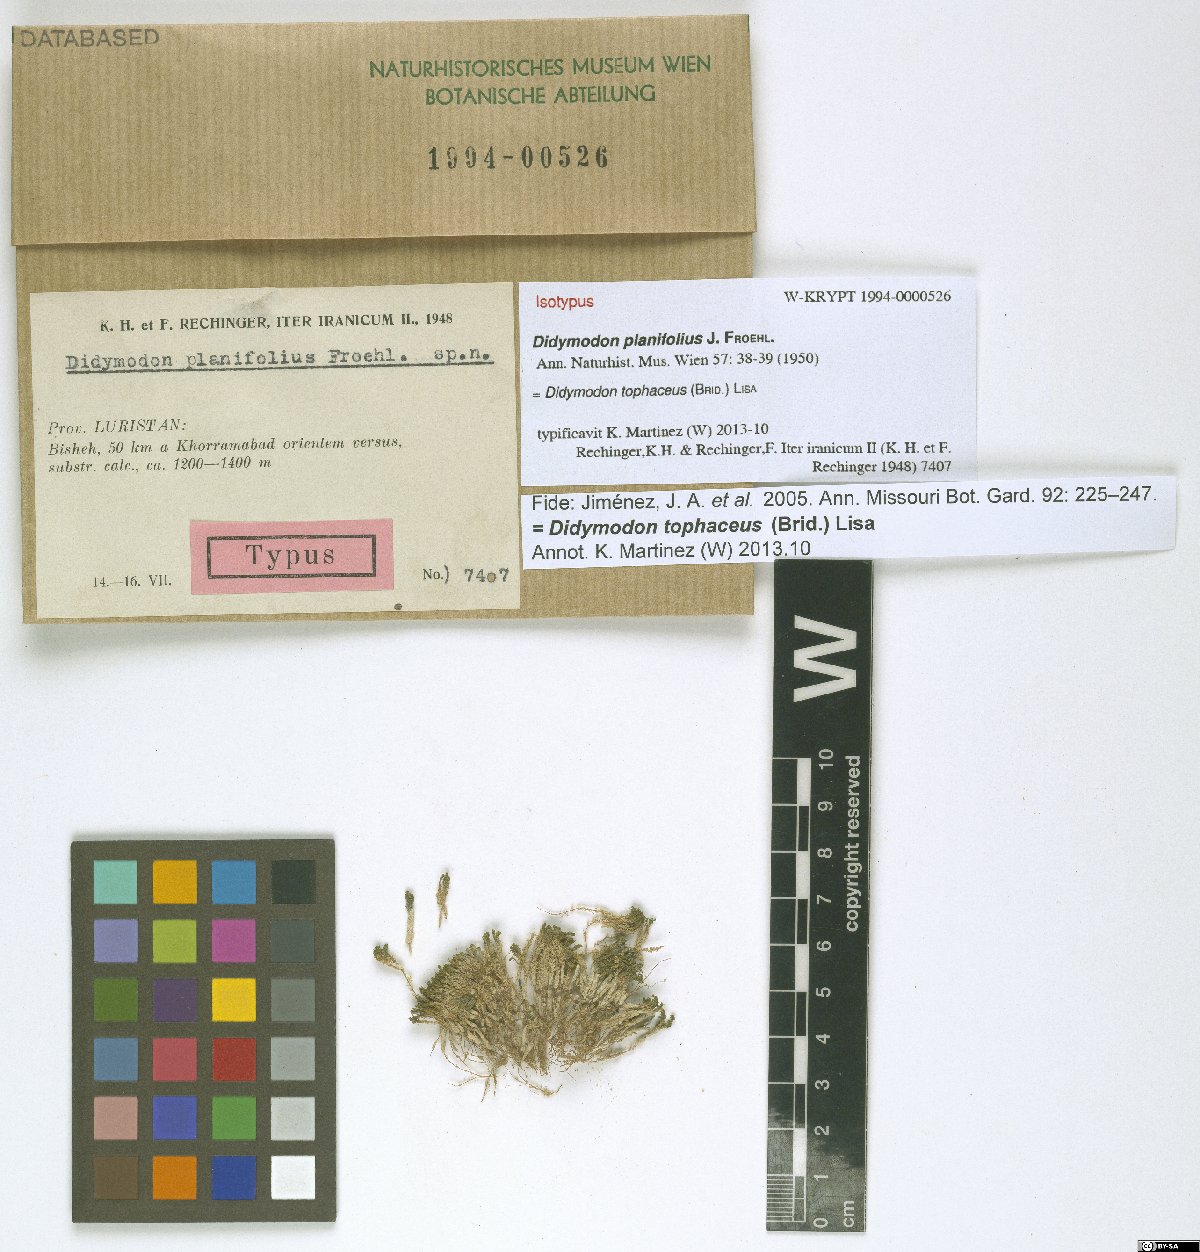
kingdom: Plantae
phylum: Bryophyta
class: Bryopsida
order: Pottiales
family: Pottiaceae
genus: Geheebia
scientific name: Geheebia tophacea
